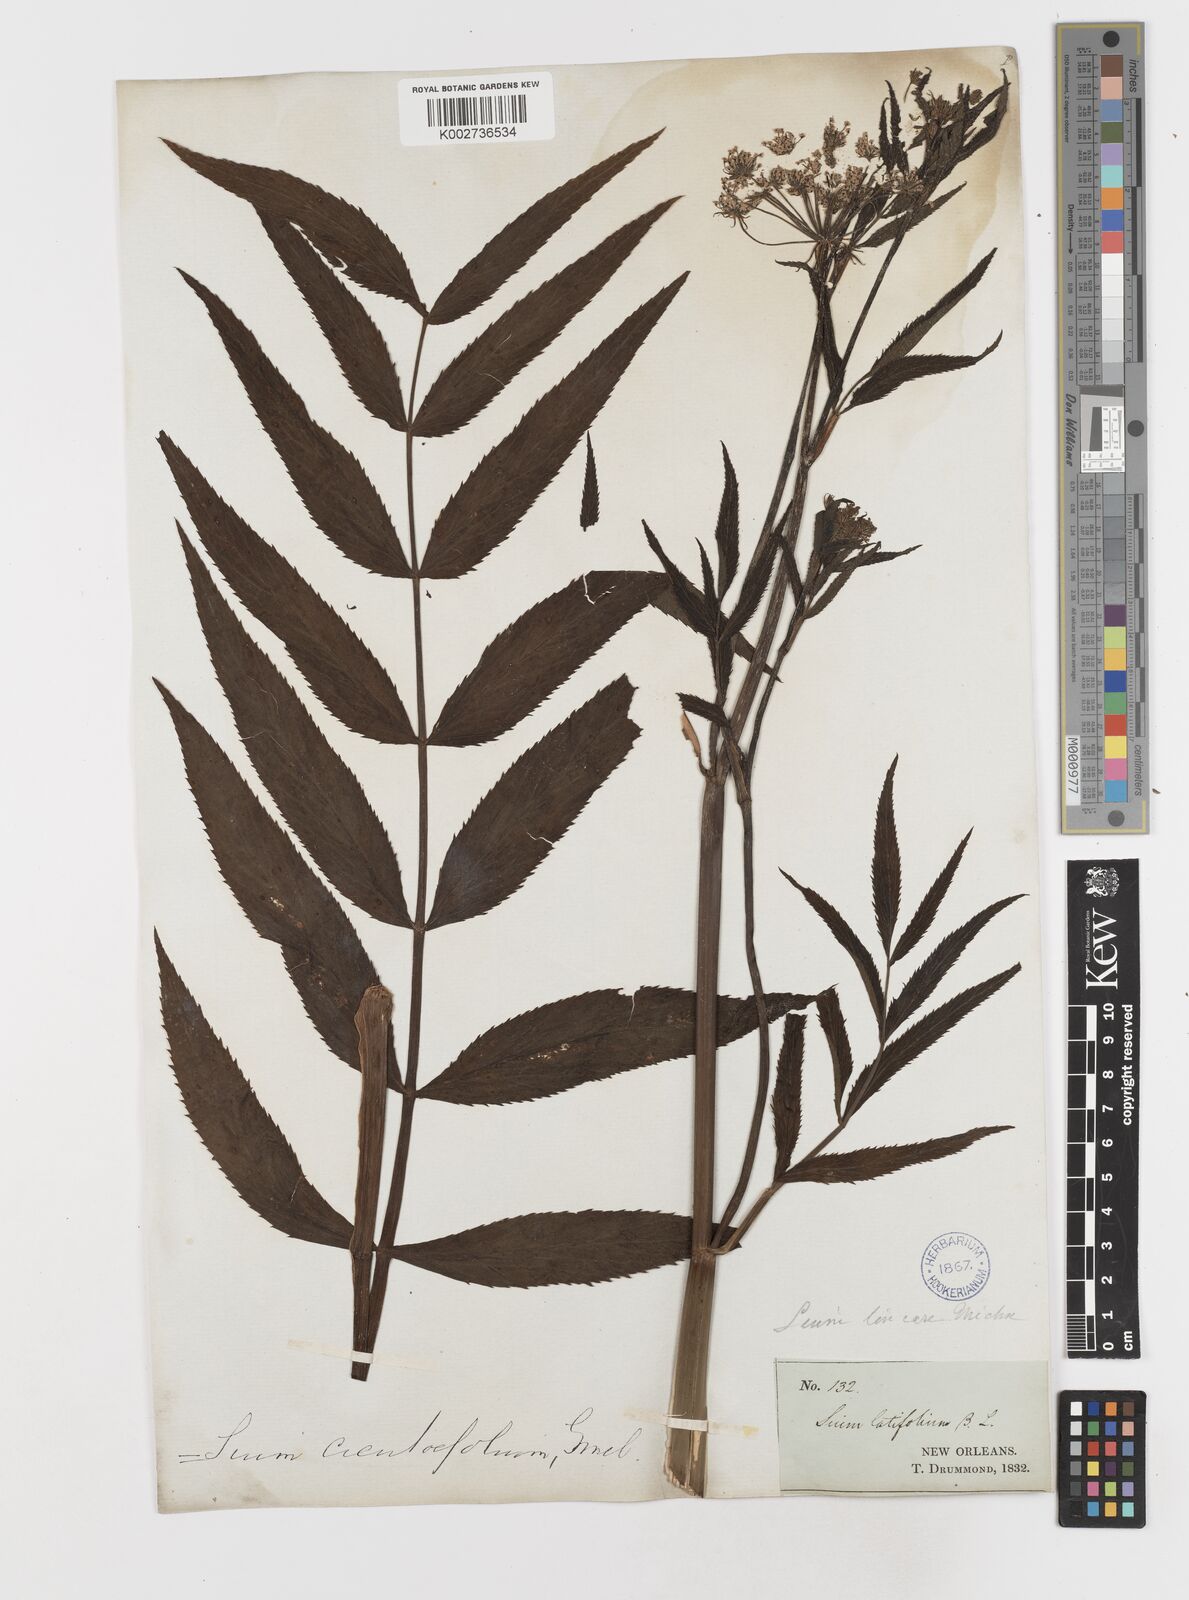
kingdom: Plantae
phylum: Tracheophyta
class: Magnoliopsida
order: Apiales
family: Apiaceae
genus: Sium
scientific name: Sium suave
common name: Hemlock water-parsnip
